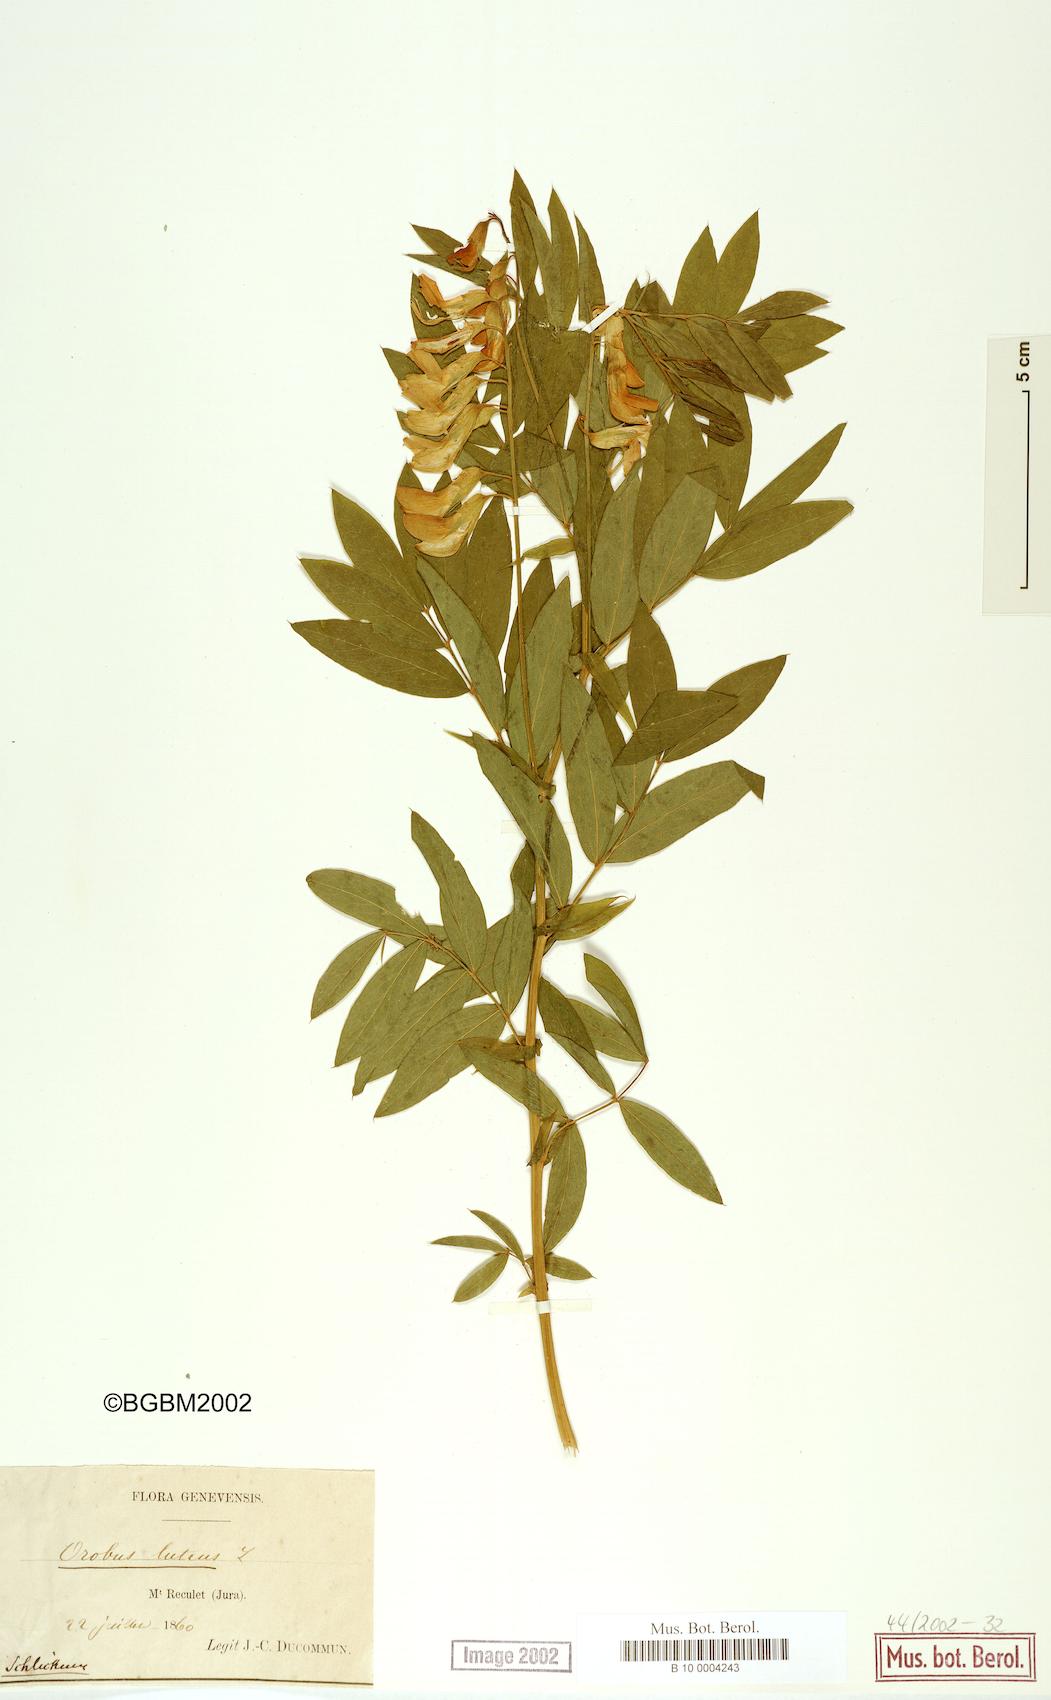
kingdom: Plantae
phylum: Tracheophyta
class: Magnoliopsida
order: Fabales
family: Fabaceae
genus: Lathyrus
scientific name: Lathyrus gmelinii
